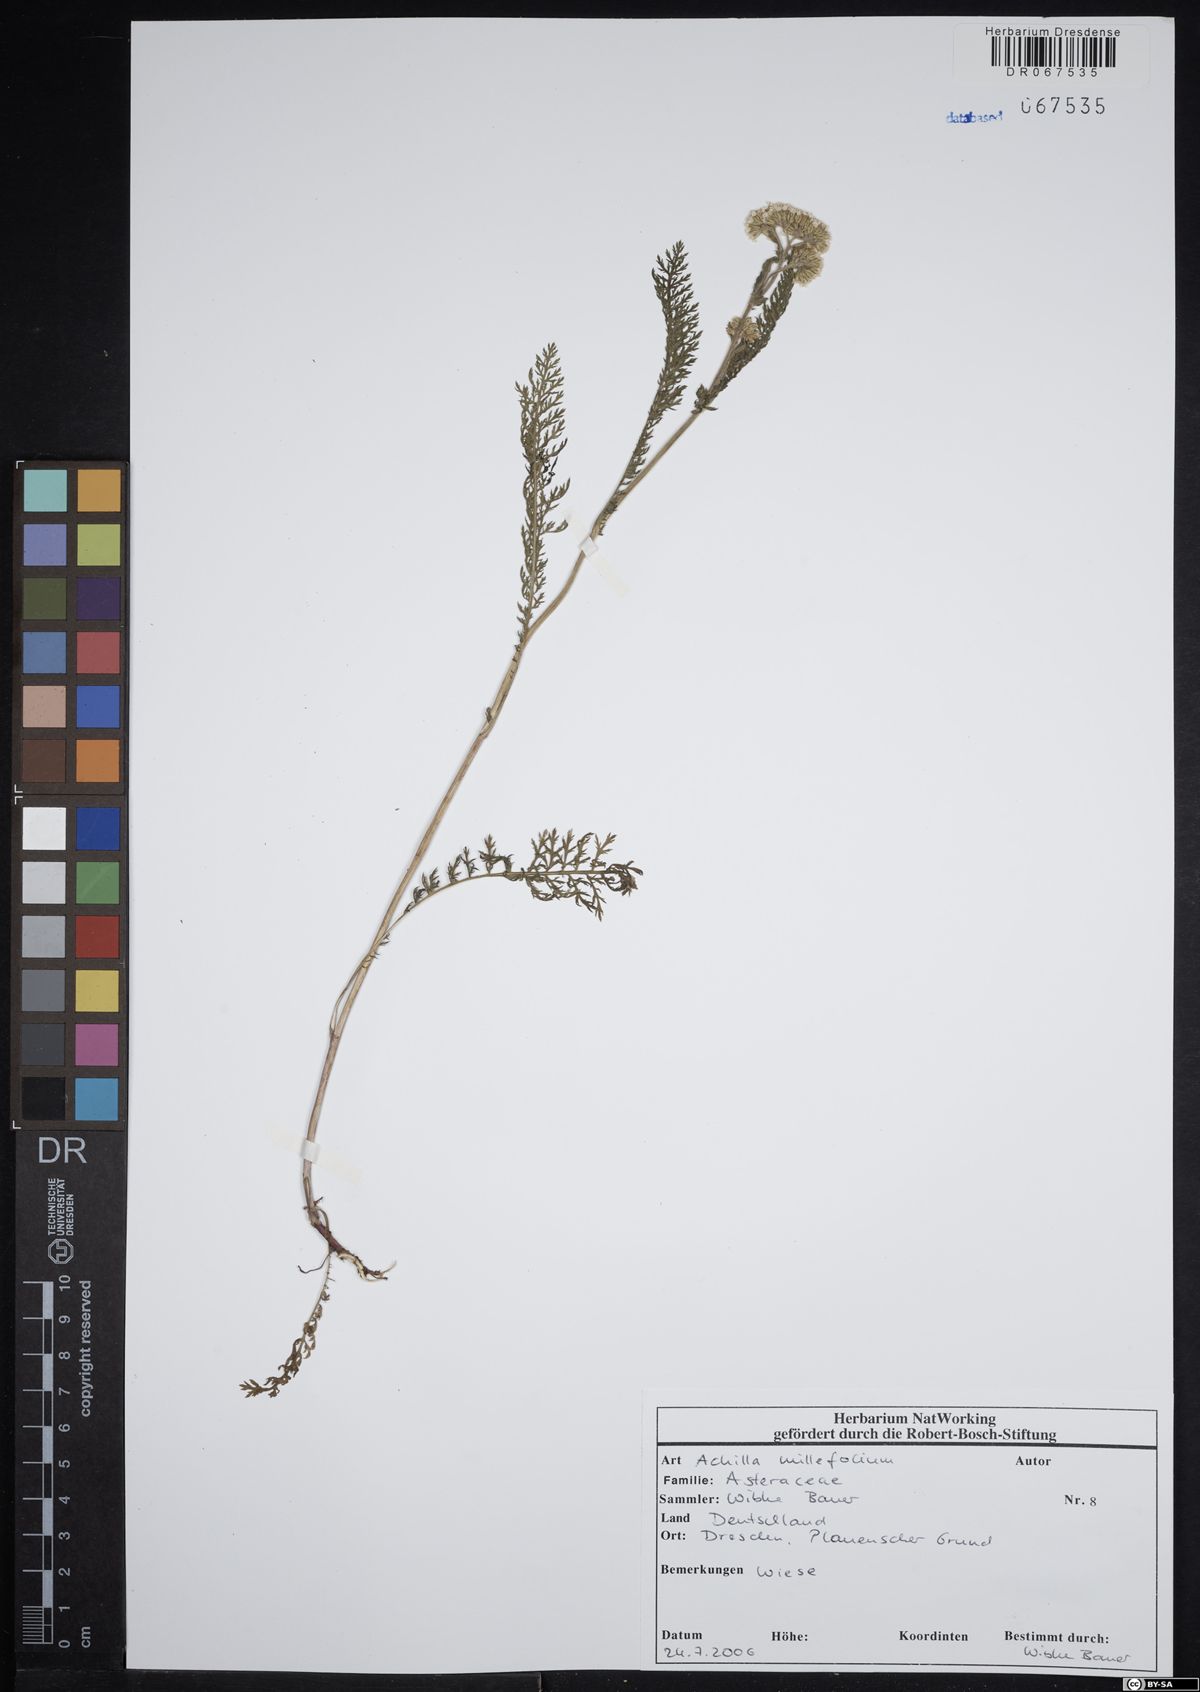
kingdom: Plantae
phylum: Tracheophyta
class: Magnoliopsida
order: Asterales
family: Asteraceae
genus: Achillea
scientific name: Achillea millefolium
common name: Yarrow
